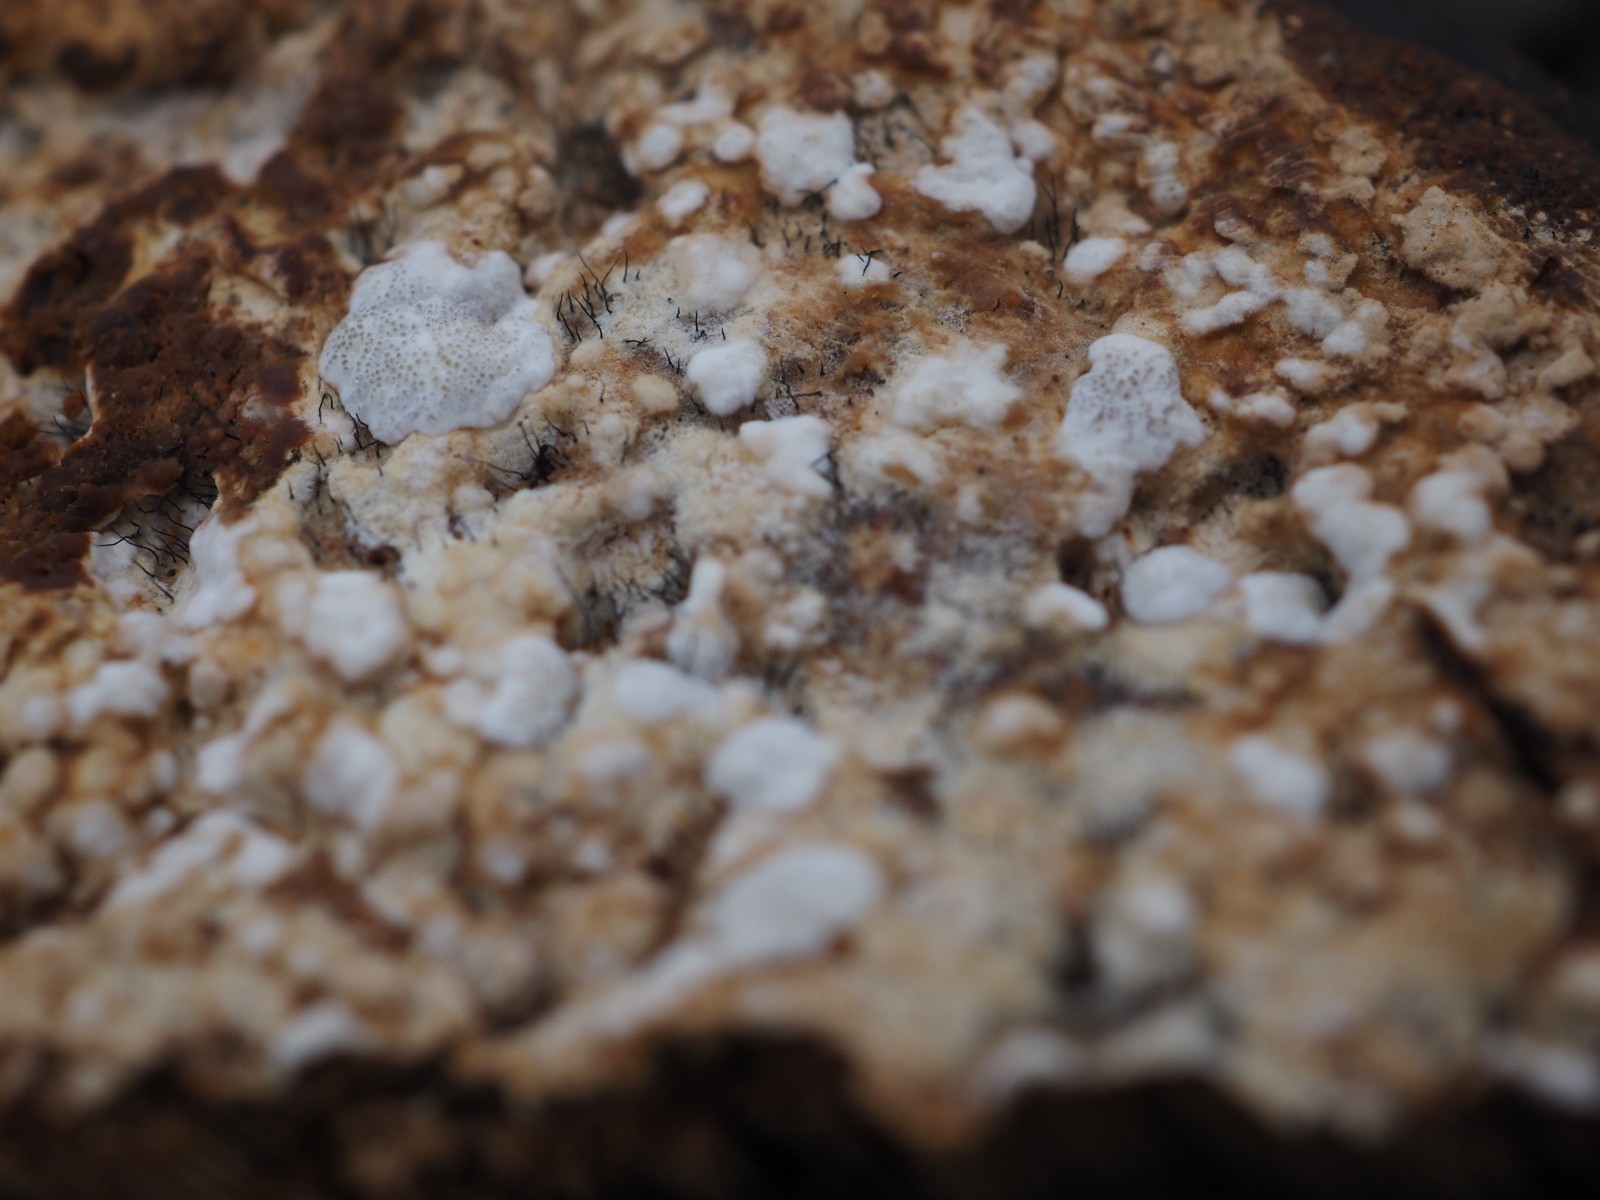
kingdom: Fungi
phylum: Ascomycota
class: Sordariomycetes
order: Hypocreales
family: Hypocreaceae
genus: Trichoderma
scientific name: Trichoderma protopulvinatum
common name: hovpore-kødkerne
